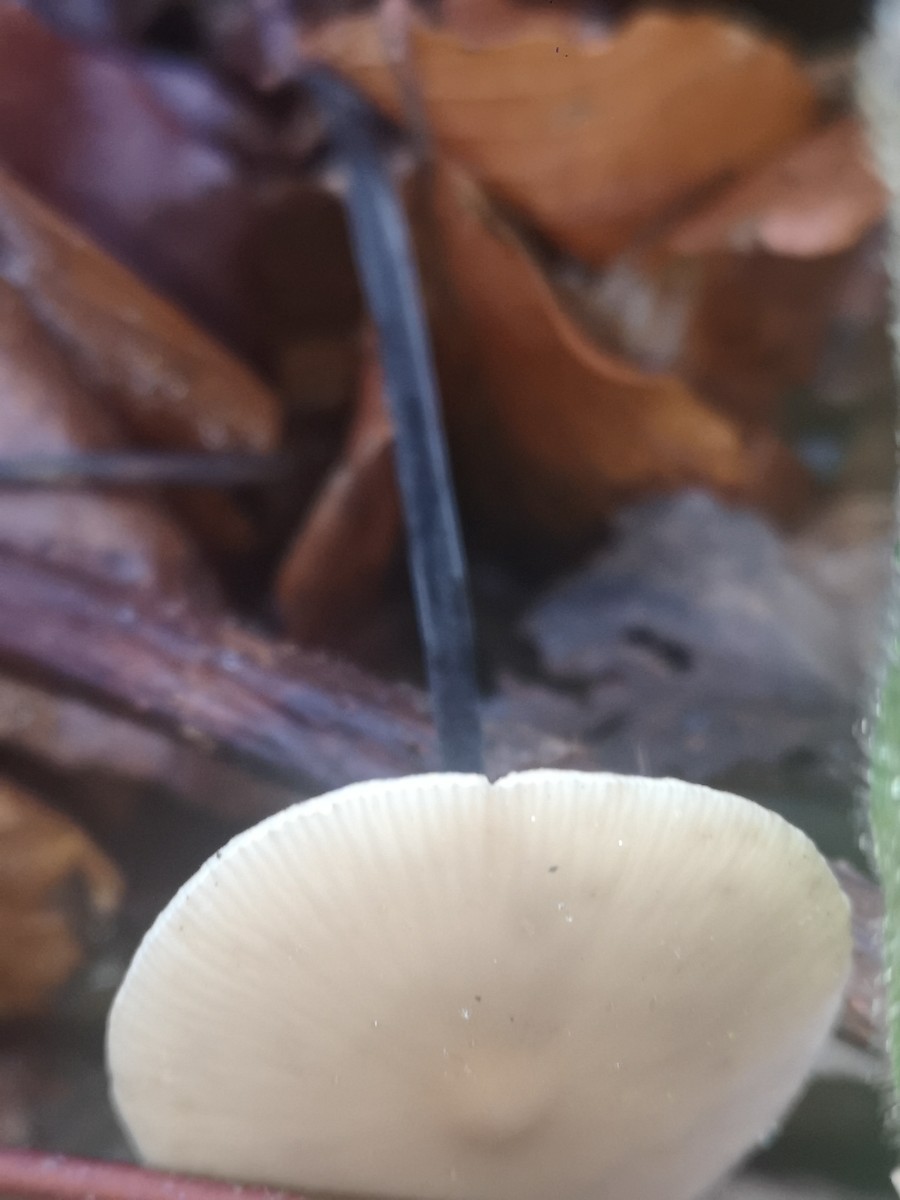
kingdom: Fungi
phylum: Basidiomycota
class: Agaricomycetes
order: Agaricales
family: Omphalotaceae
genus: Mycetinis
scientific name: Mycetinis alliaceus
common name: stor løghat
